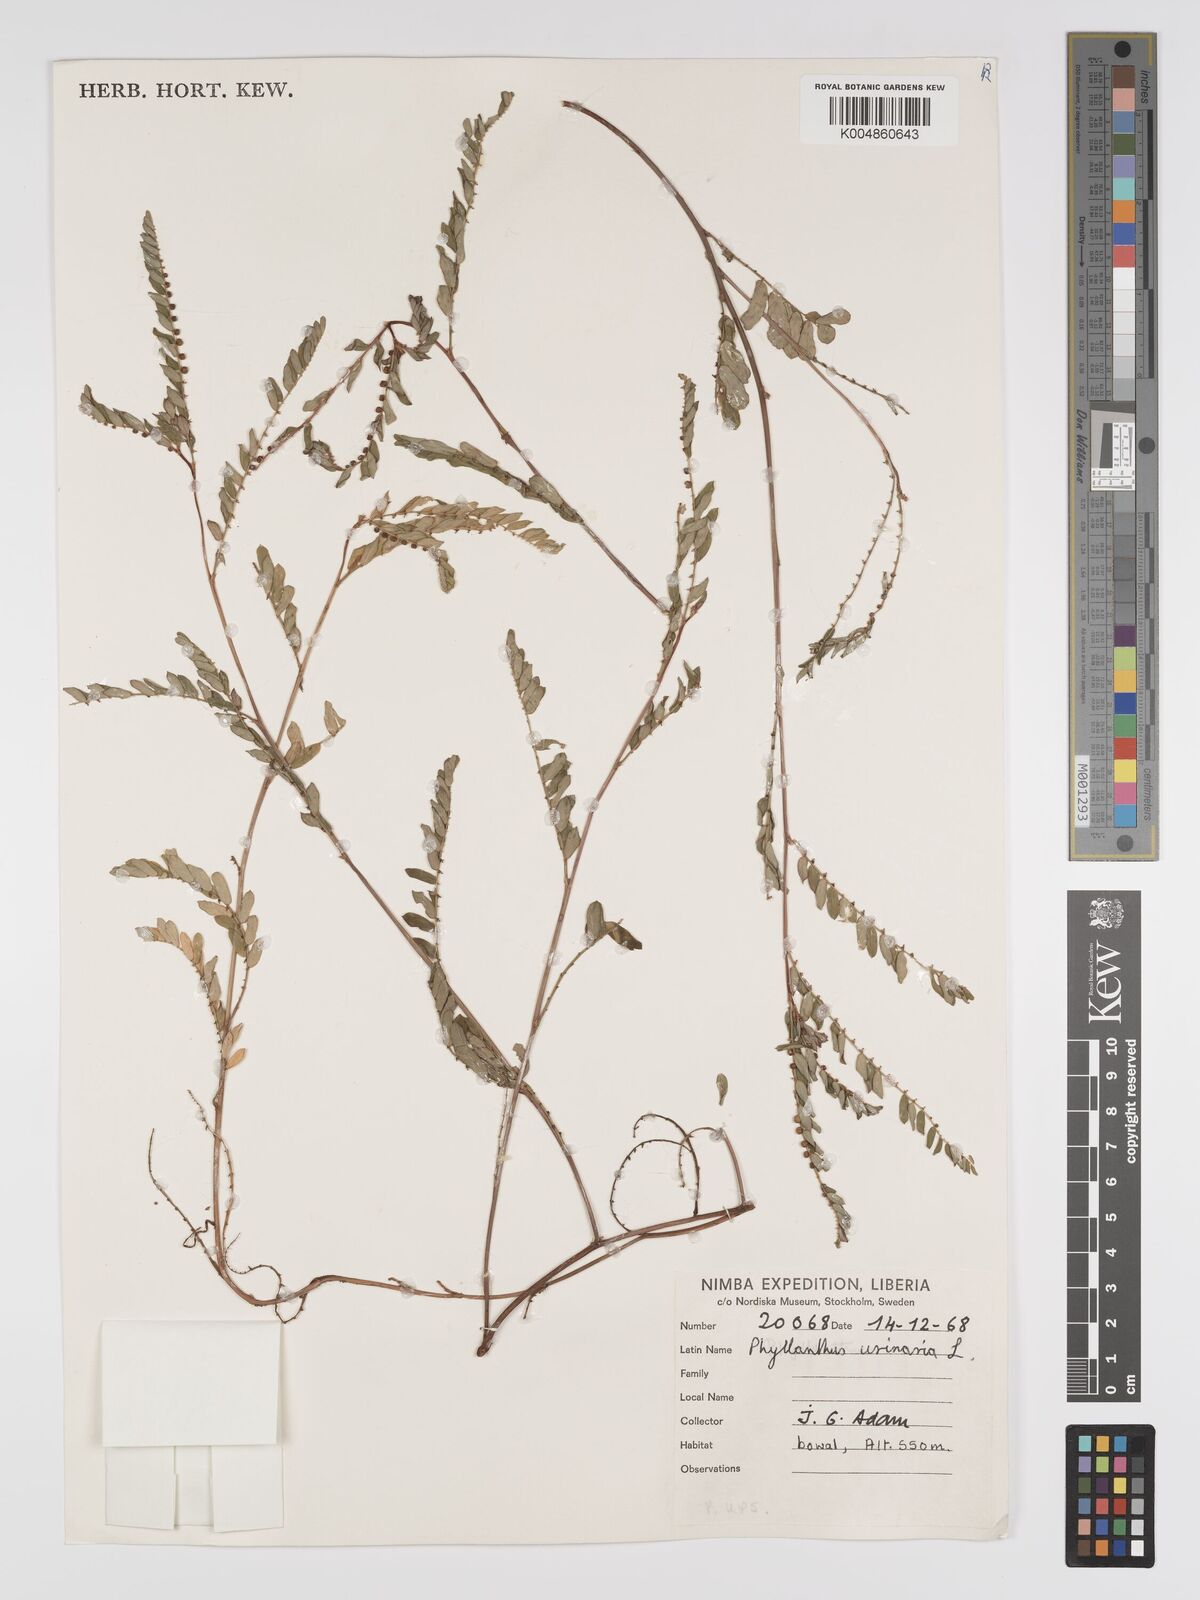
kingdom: Plantae
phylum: Tracheophyta
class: Magnoliopsida
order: Malpighiales
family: Phyllanthaceae
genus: Phyllanthus
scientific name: Phyllanthus urinaria
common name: Chamber bitter
